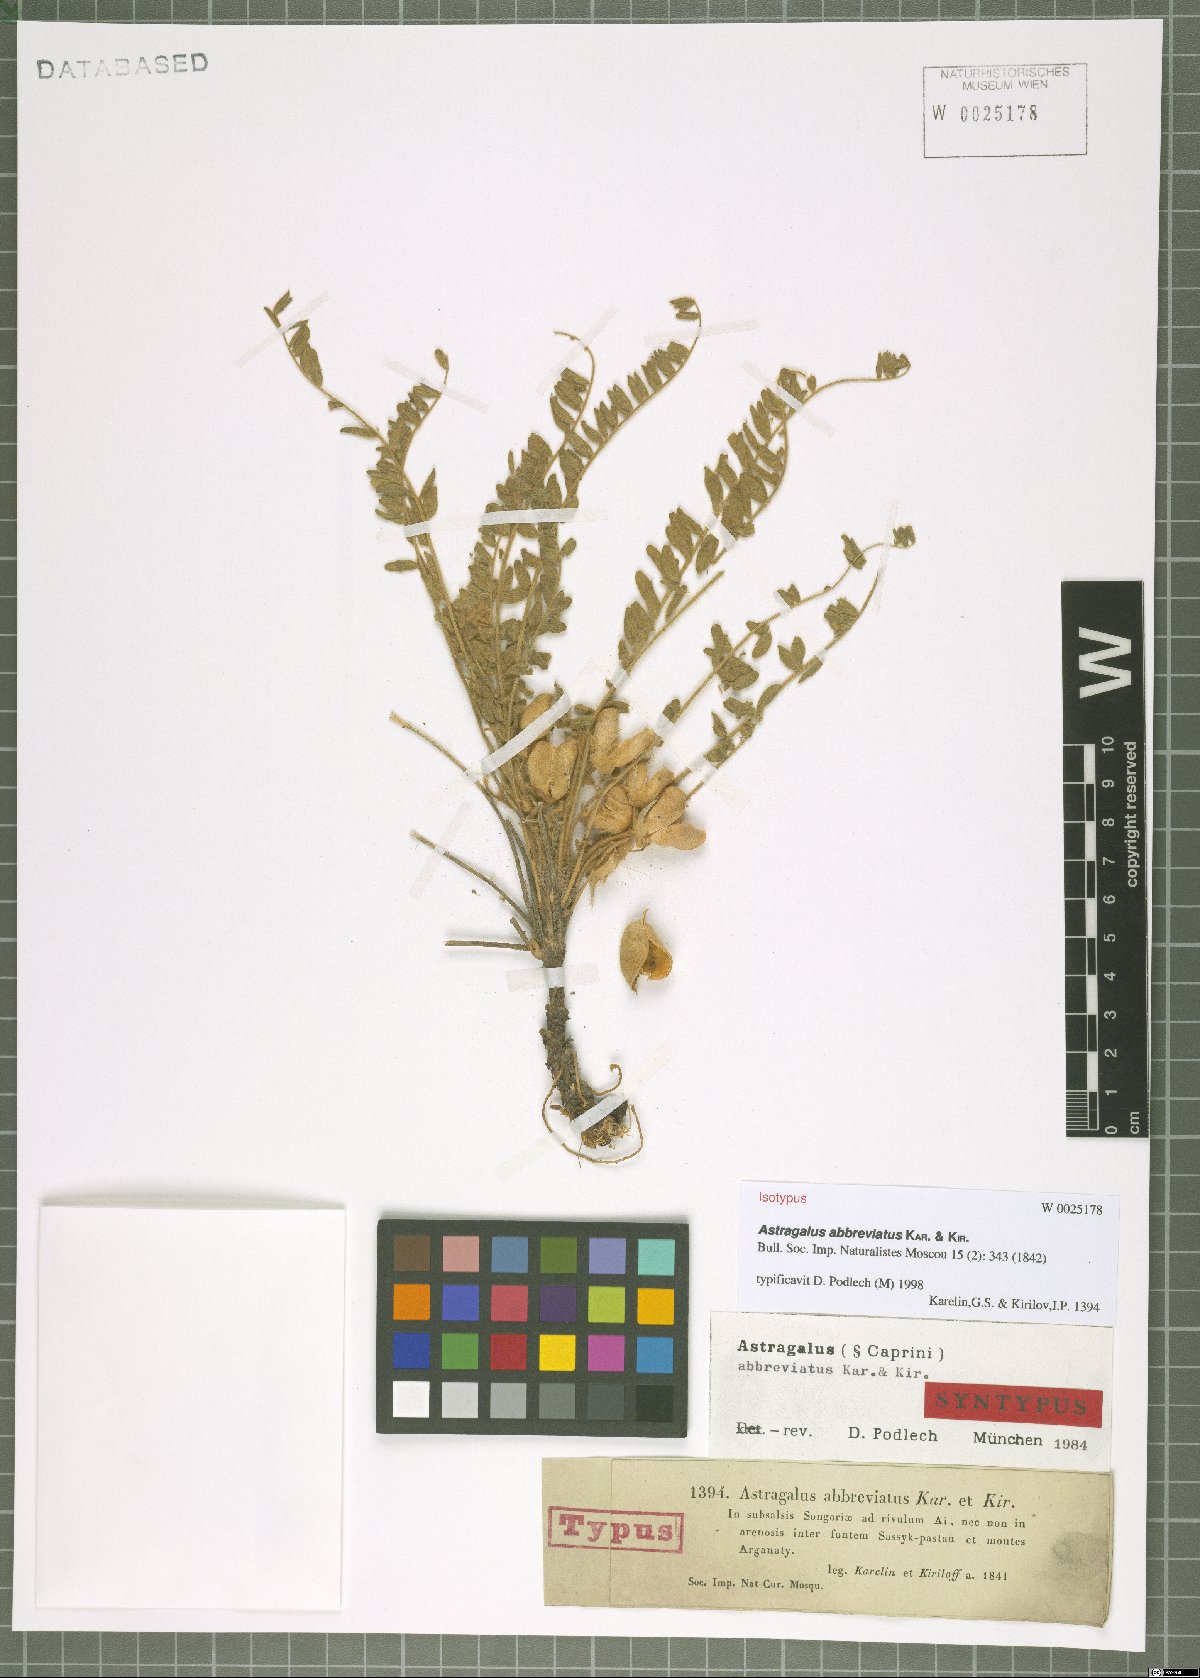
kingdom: Plantae
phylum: Tracheophyta
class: Magnoliopsida
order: Fabales
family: Fabaceae
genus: Astragalus
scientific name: Astragalus abbreviatus
